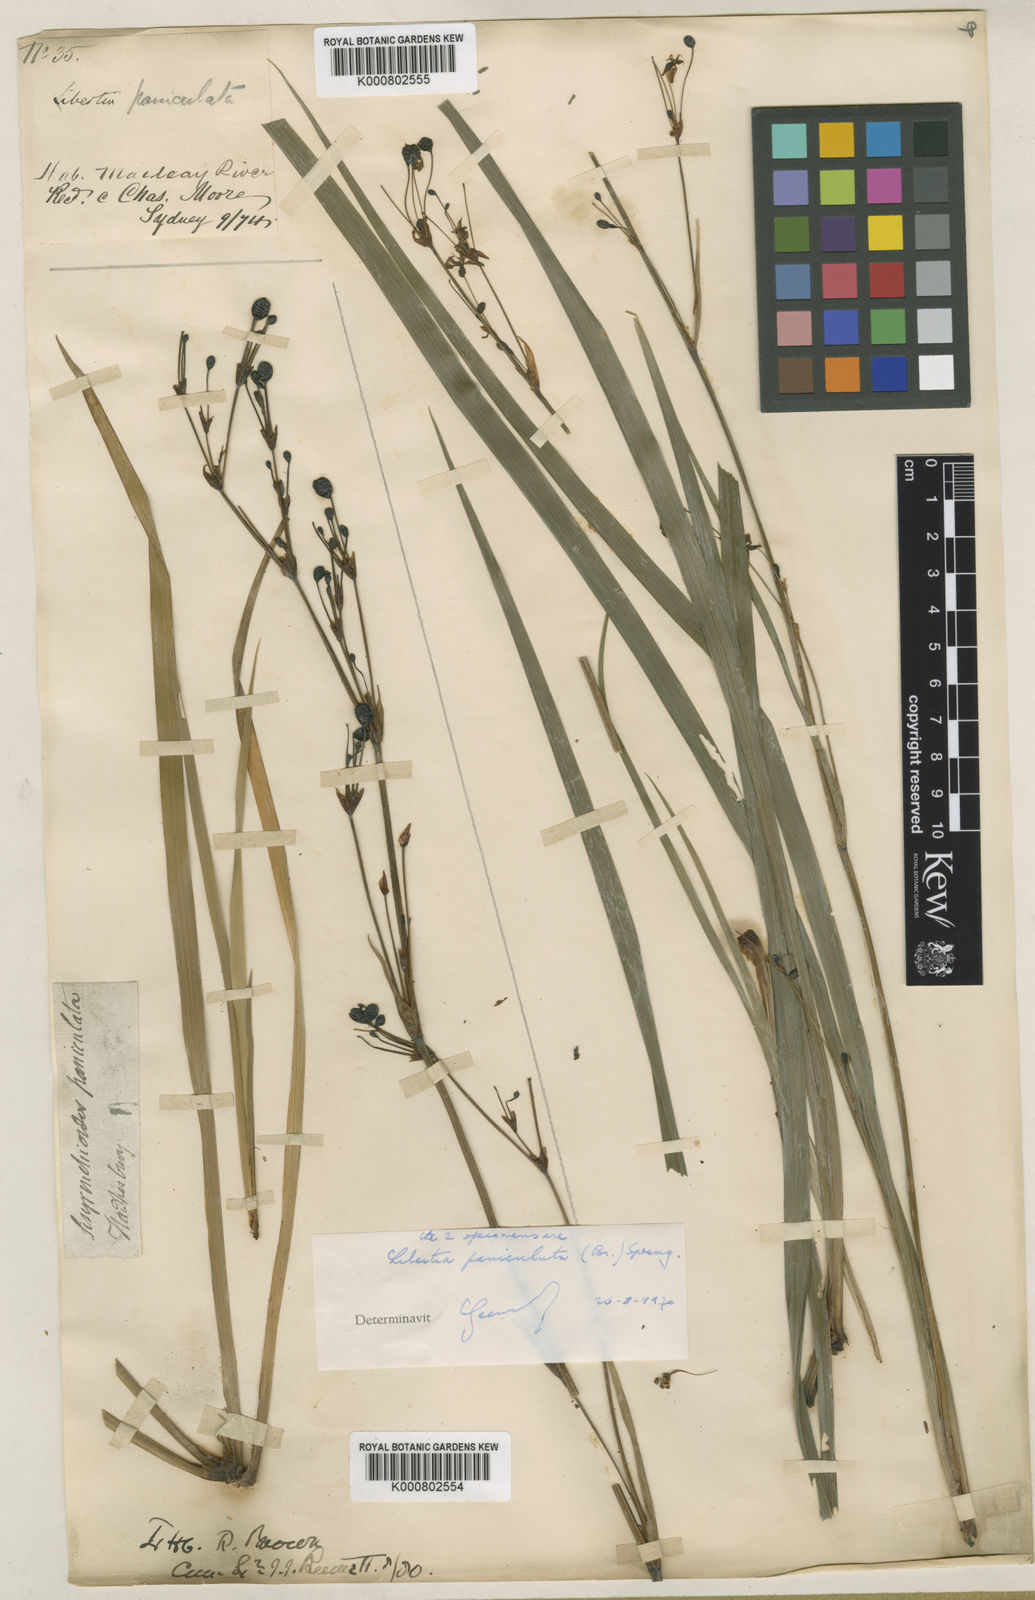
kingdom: Plantae
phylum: Tracheophyta
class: Liliopsida
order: Asparagales
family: Iridaceae
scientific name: Iridaceae
